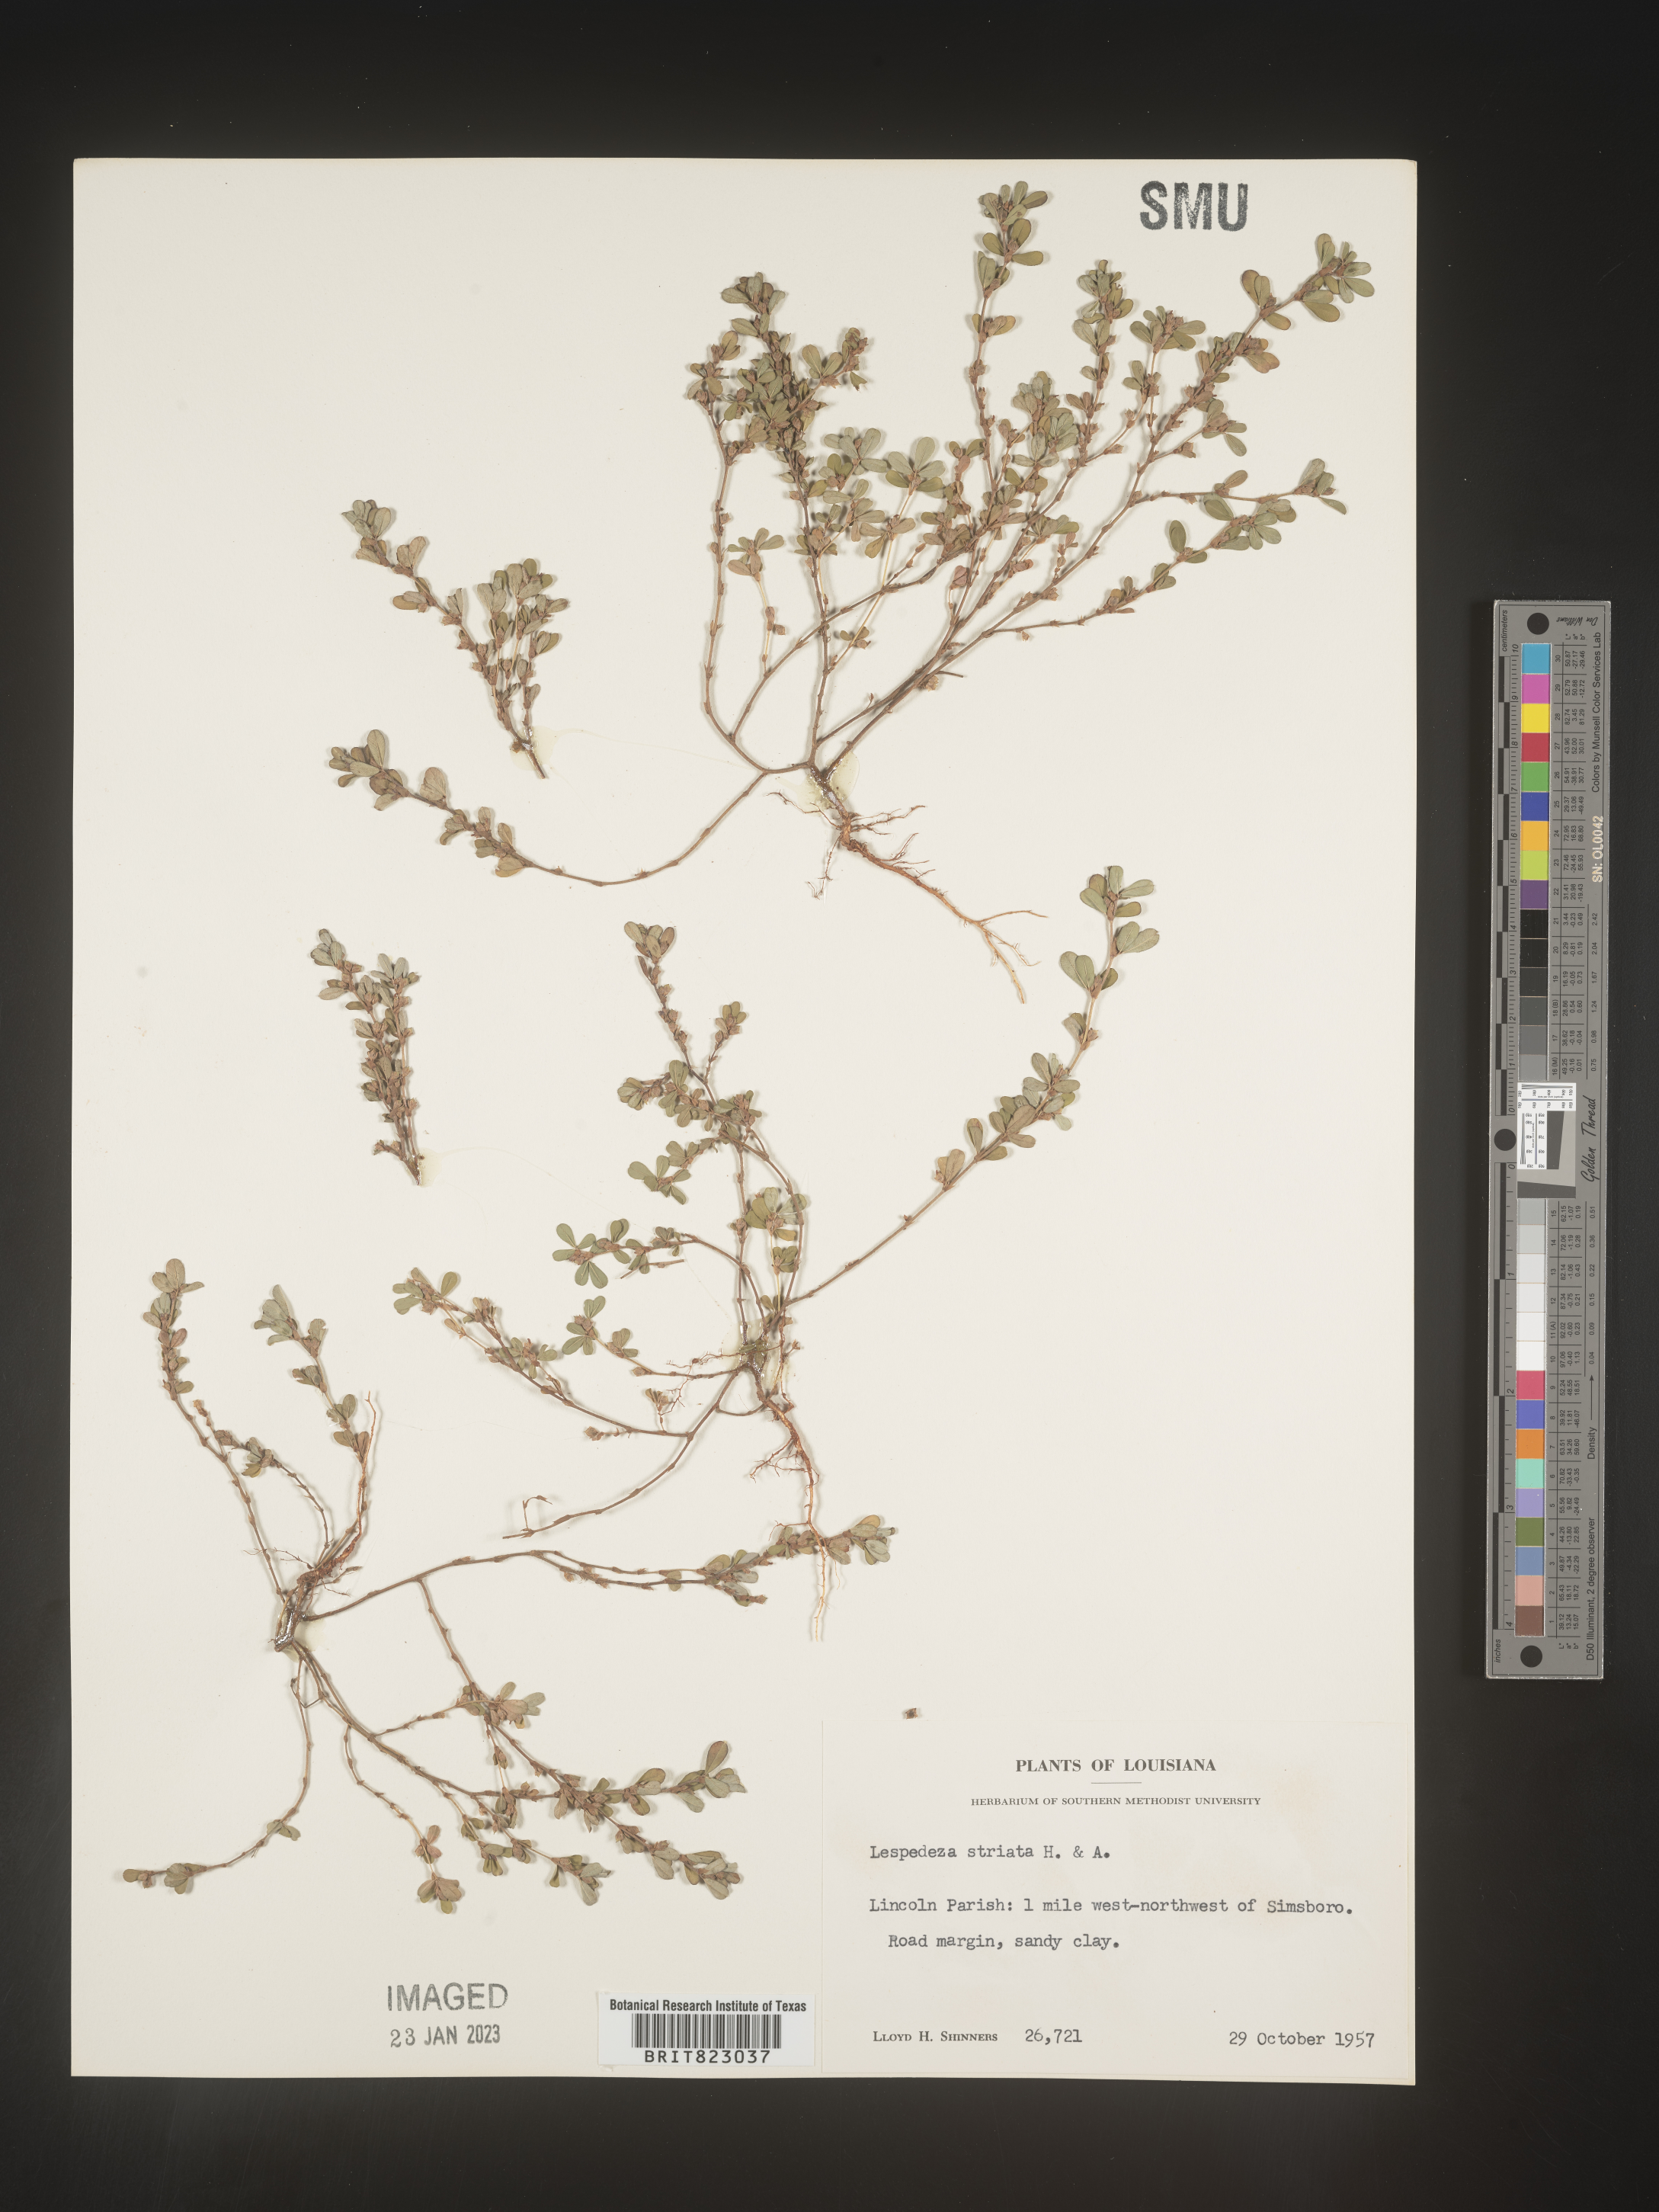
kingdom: Plantae
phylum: Tracheophyta
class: Magnoliopsida
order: Fabales
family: Fabaceae
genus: Kummerowia
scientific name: Kummerowia striata
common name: Japanese clover
